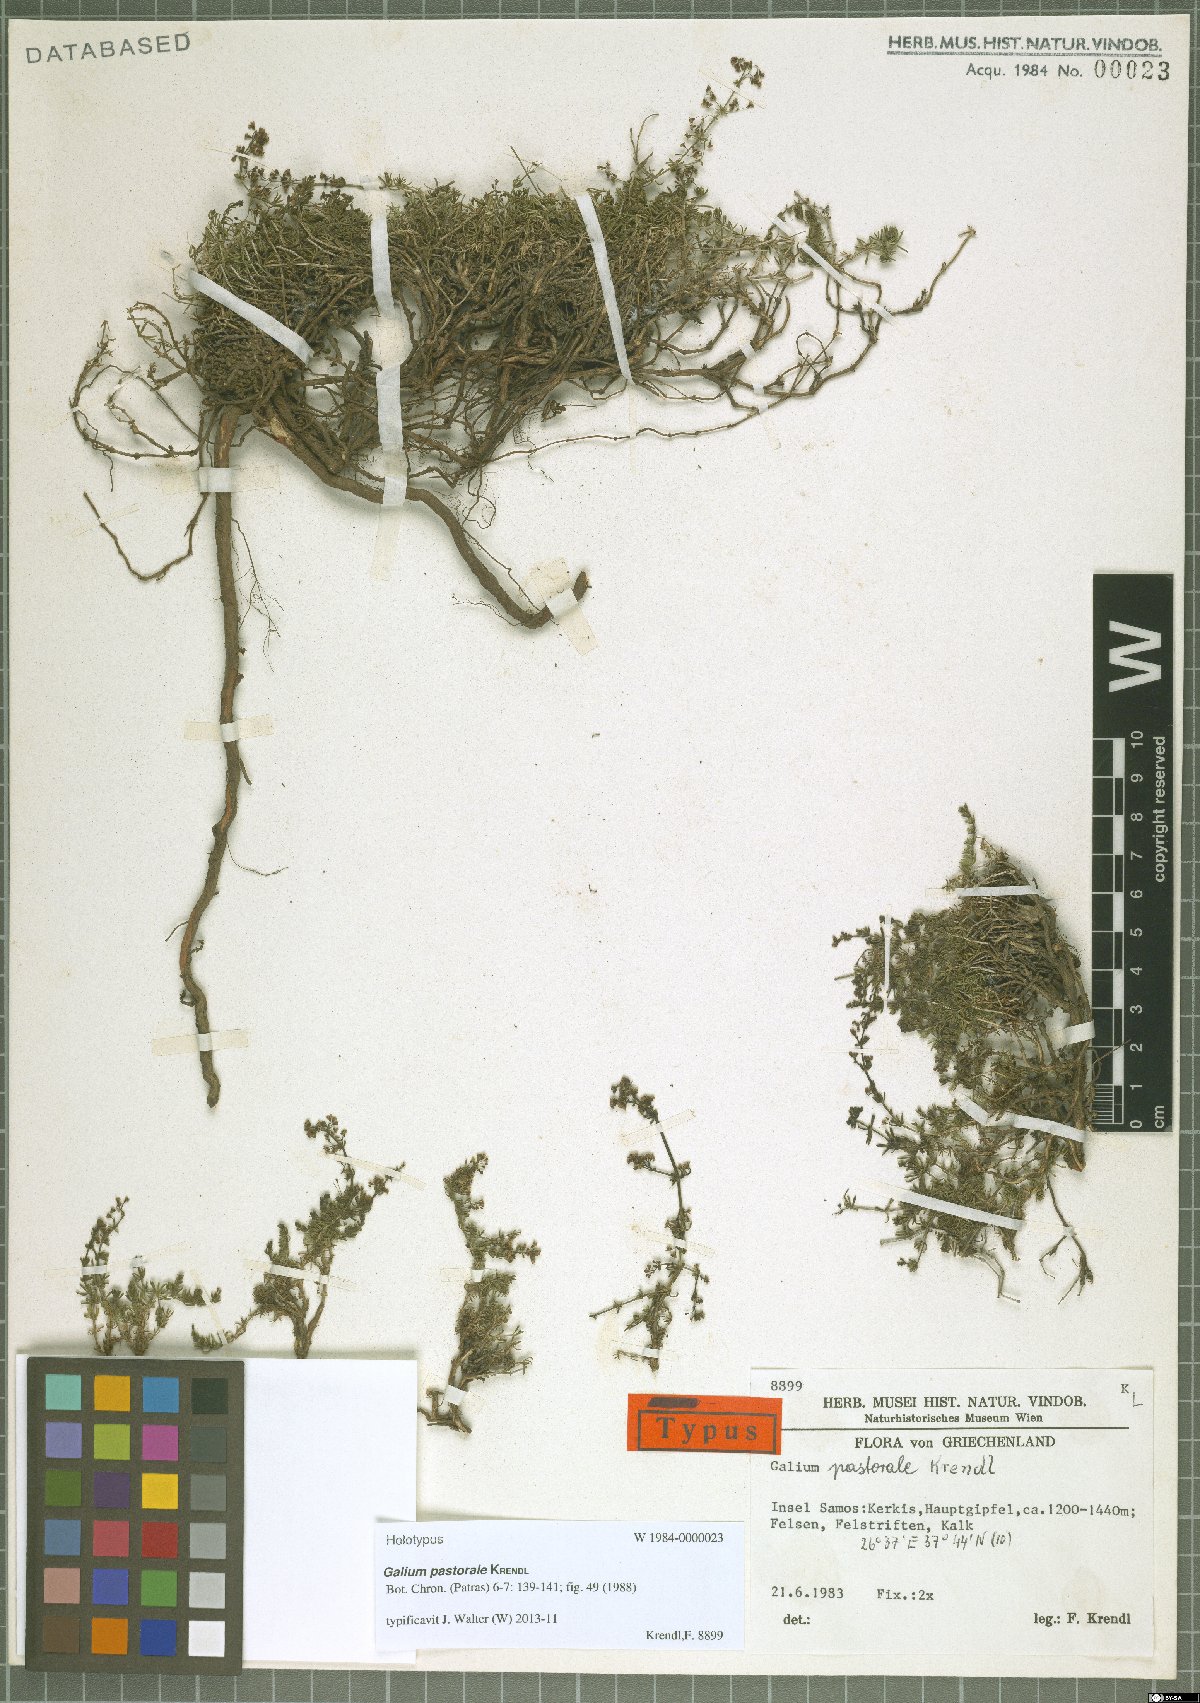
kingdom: Plantae
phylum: Tracheophyta
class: Magnoliopsida
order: Gentianales
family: Rubiaceae
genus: Galium
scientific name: Galium pastorale
